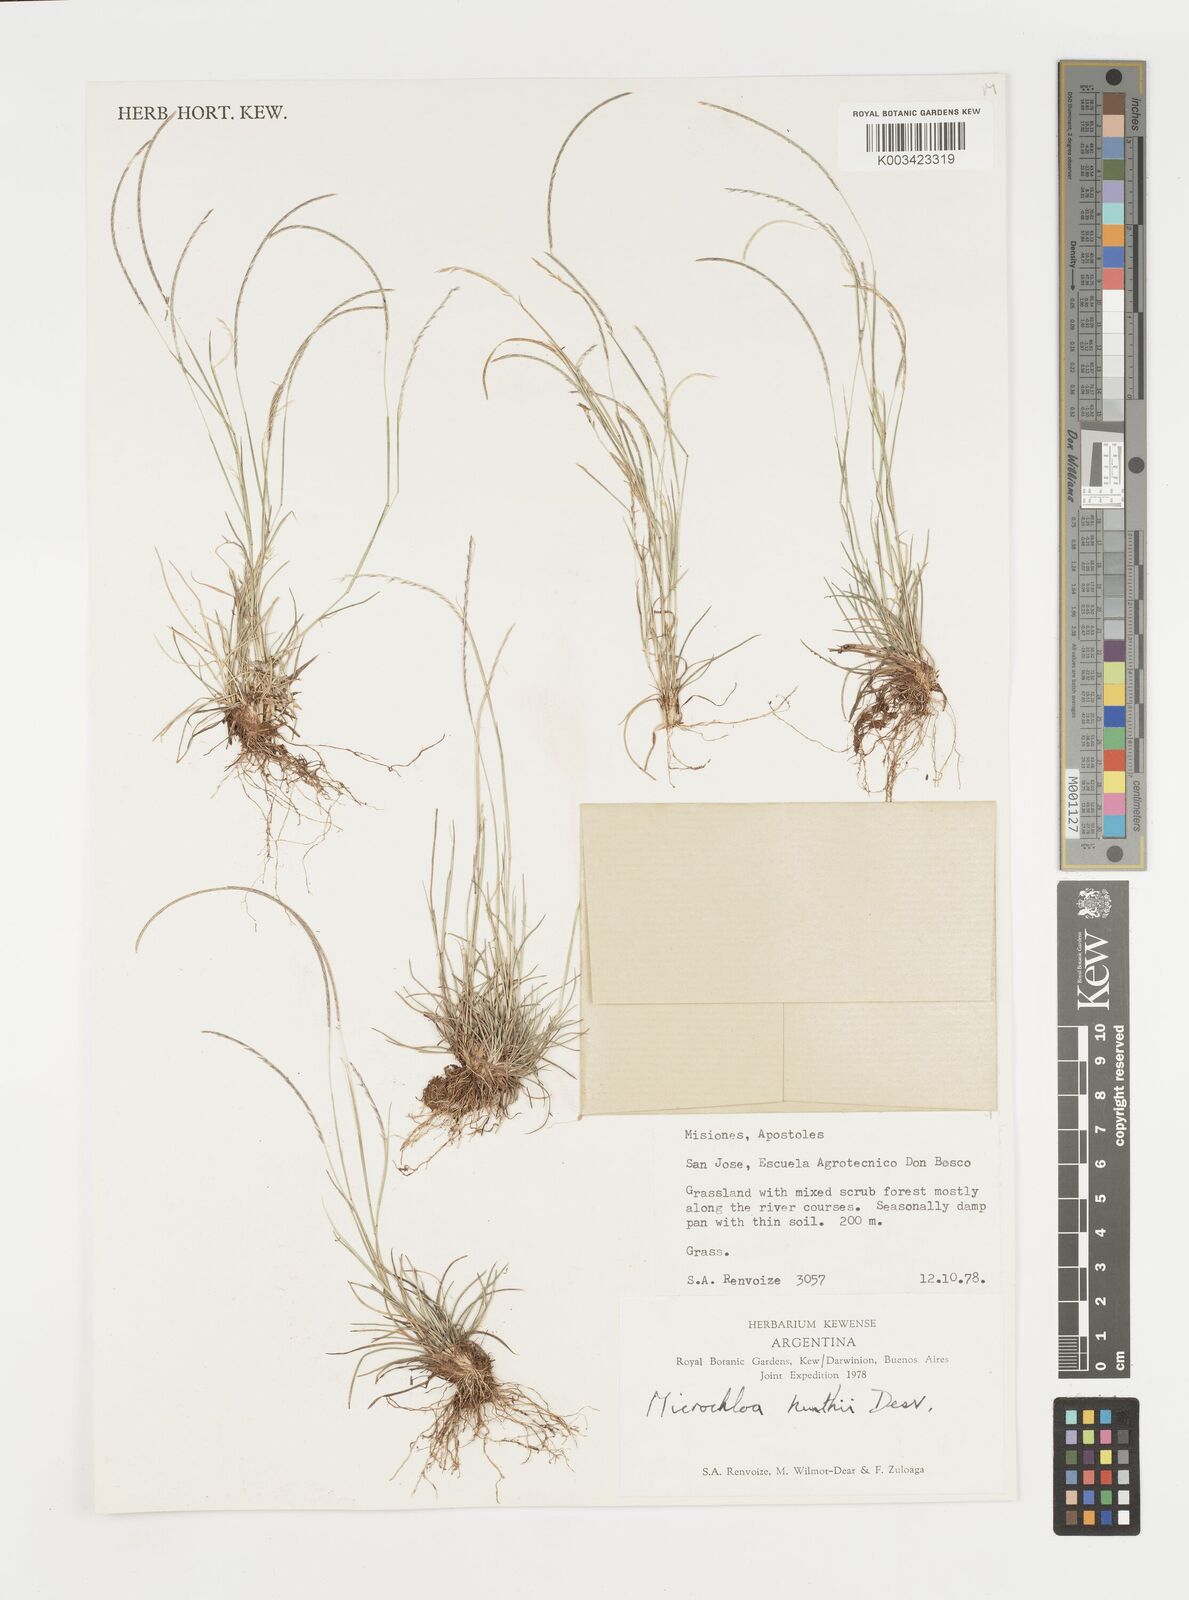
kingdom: Plantae
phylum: Tracheophyta
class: Liliopsida
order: Poales
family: Poaceae
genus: Microchloa
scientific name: Microchloa kunthii
